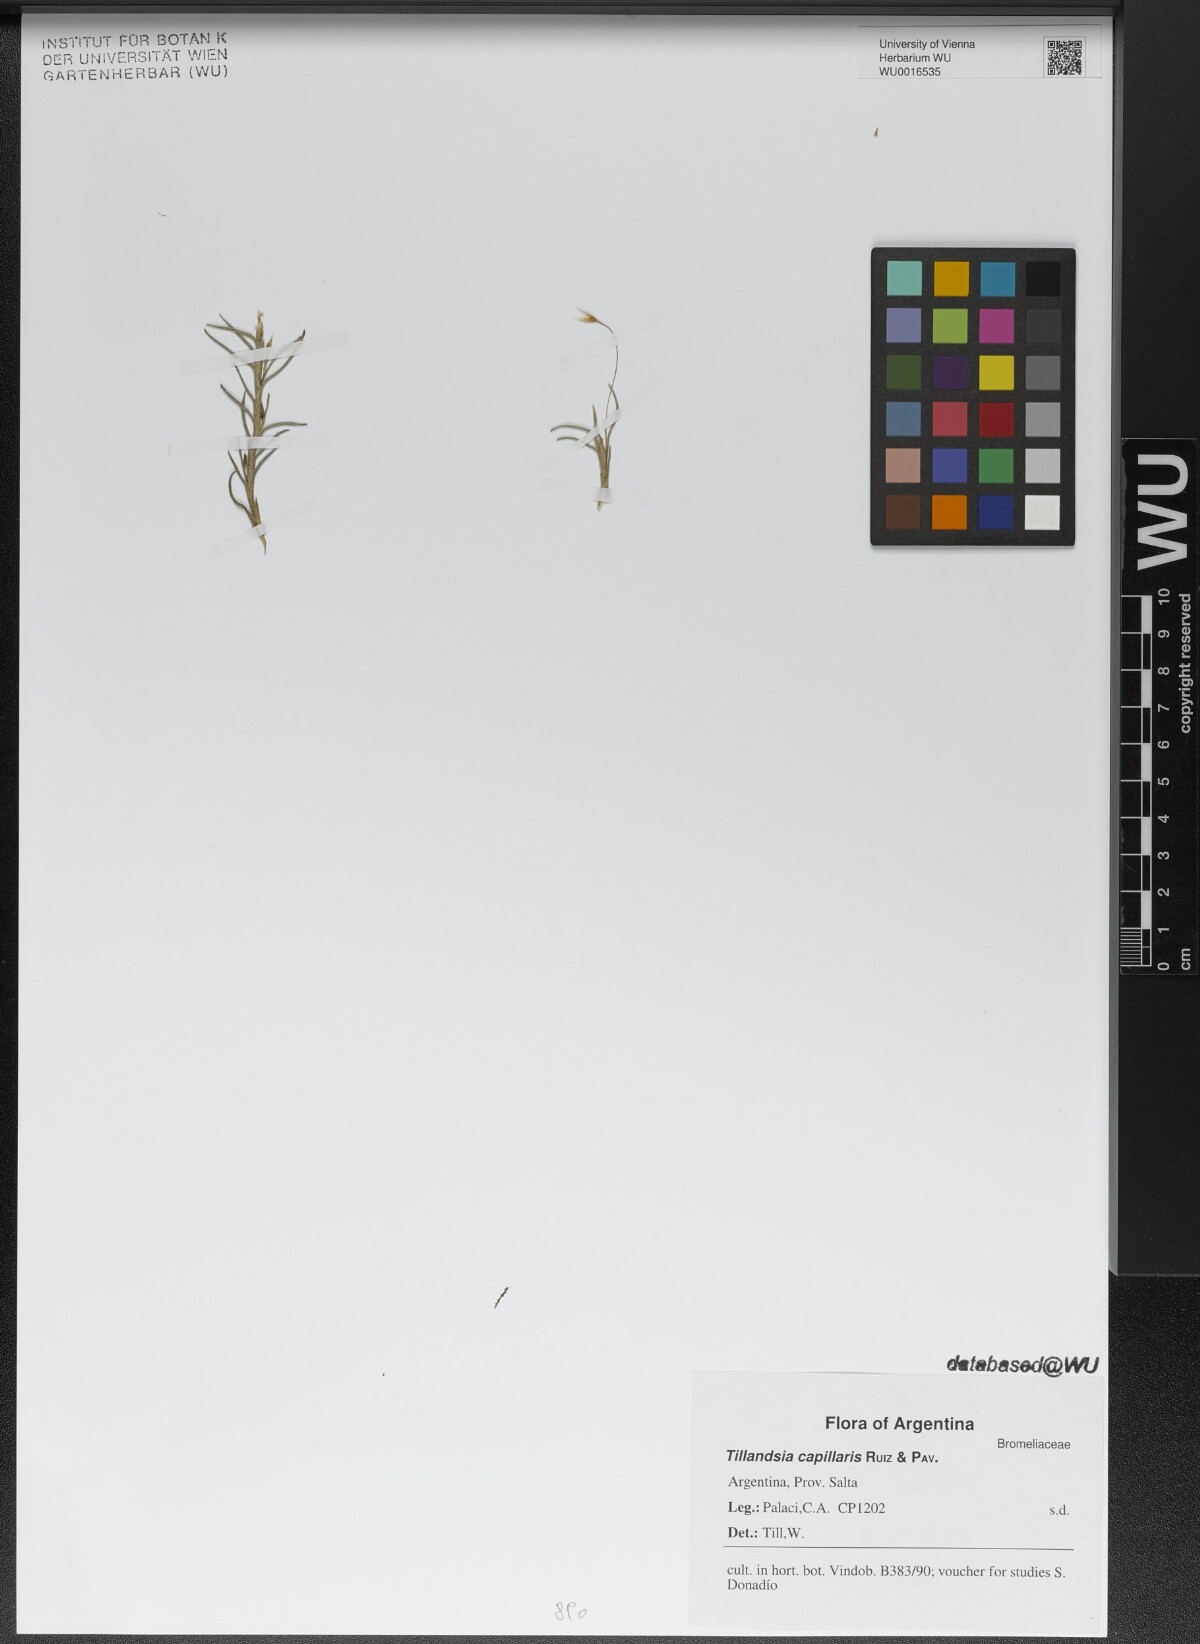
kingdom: Plantae
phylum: Tracheophyta
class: Liliopsida
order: Poales
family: Bromeliaceae
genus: Tillandsia
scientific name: Tillandsia capillaris
